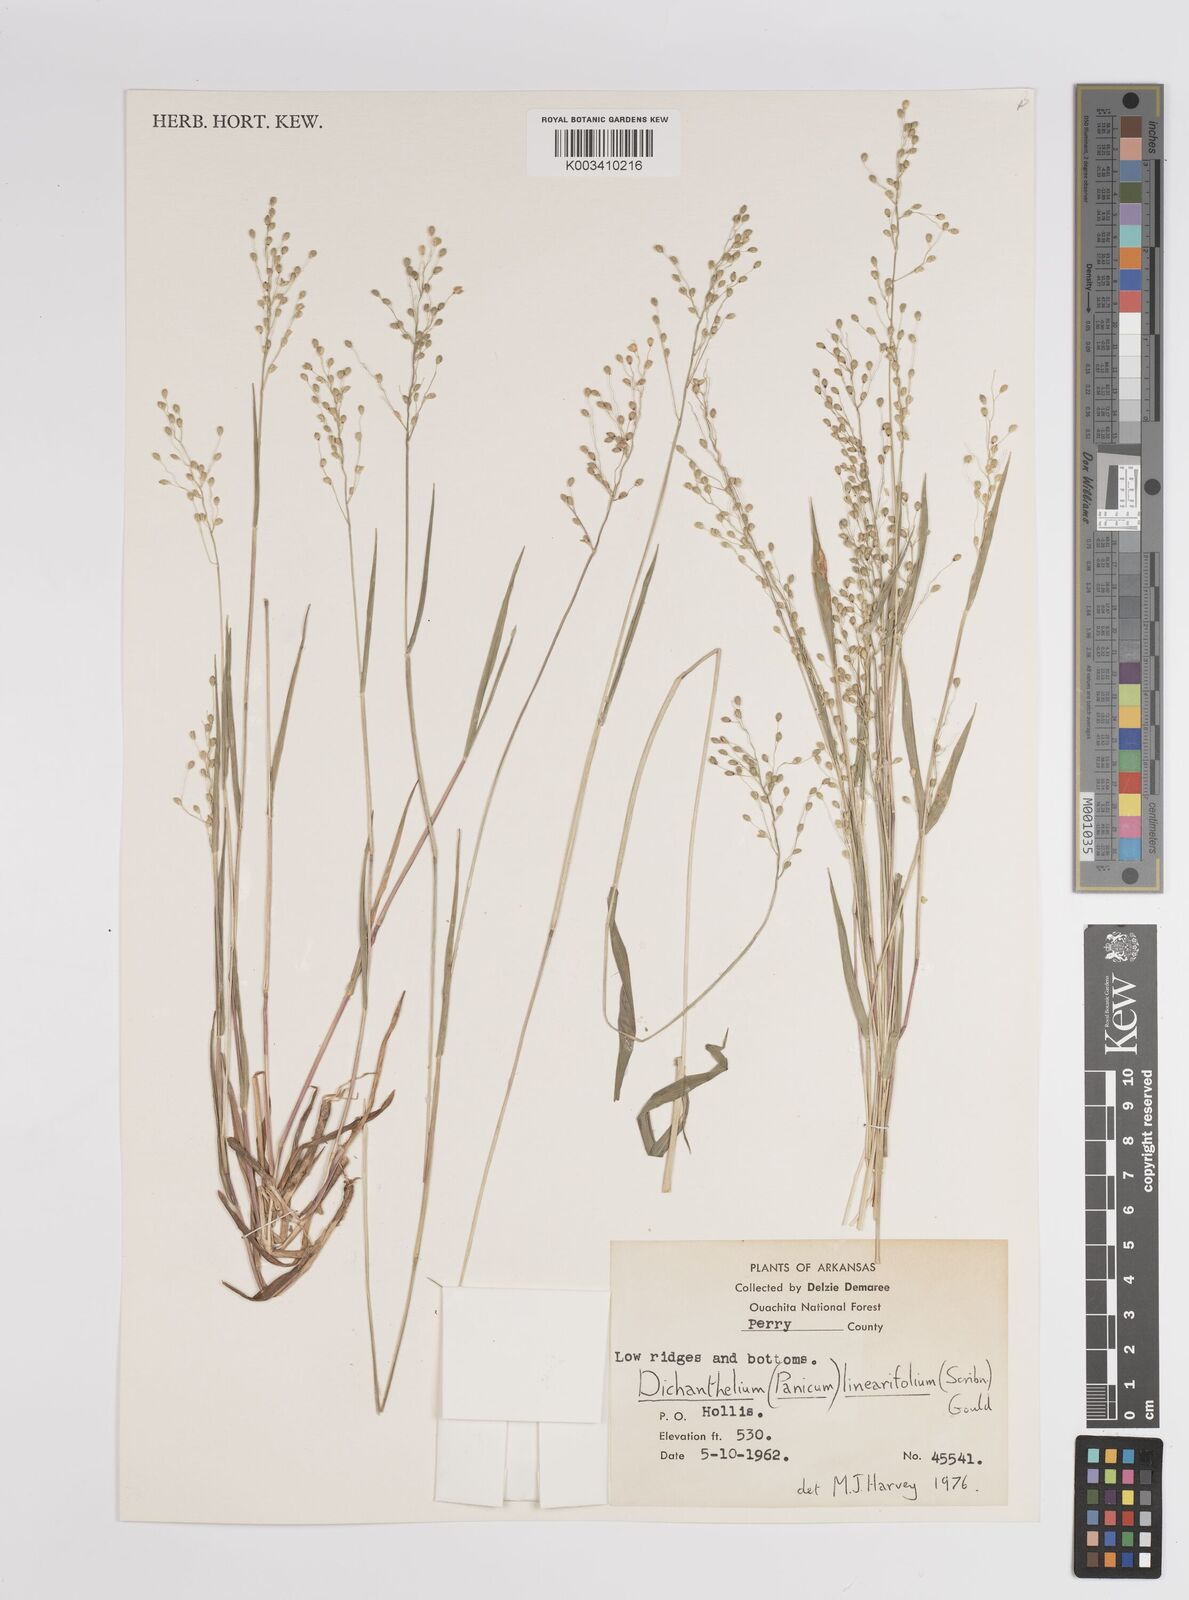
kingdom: Plantae
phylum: Tracheophyta
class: Liliopsida
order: Poales
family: Poaceae
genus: Dichanthelium
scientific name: Dichanthelium linearifolium
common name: Linear-leaved panicgrass
